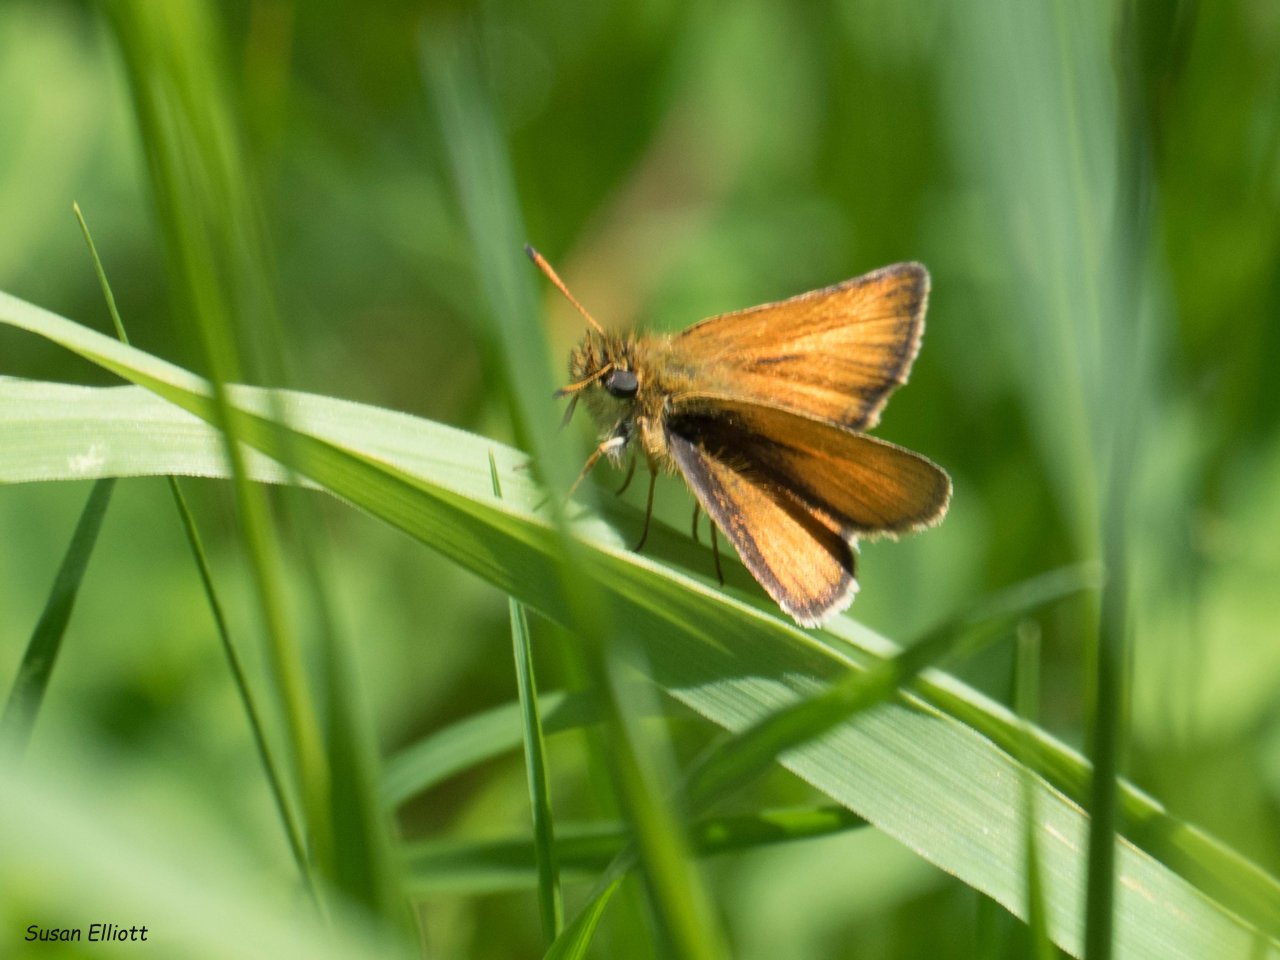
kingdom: Animalia
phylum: Arthropoda
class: Insecta
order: Lepidoptera
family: Hesperiidae
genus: Thymelicus
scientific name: Thymelicus lineola
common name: European Skipper
